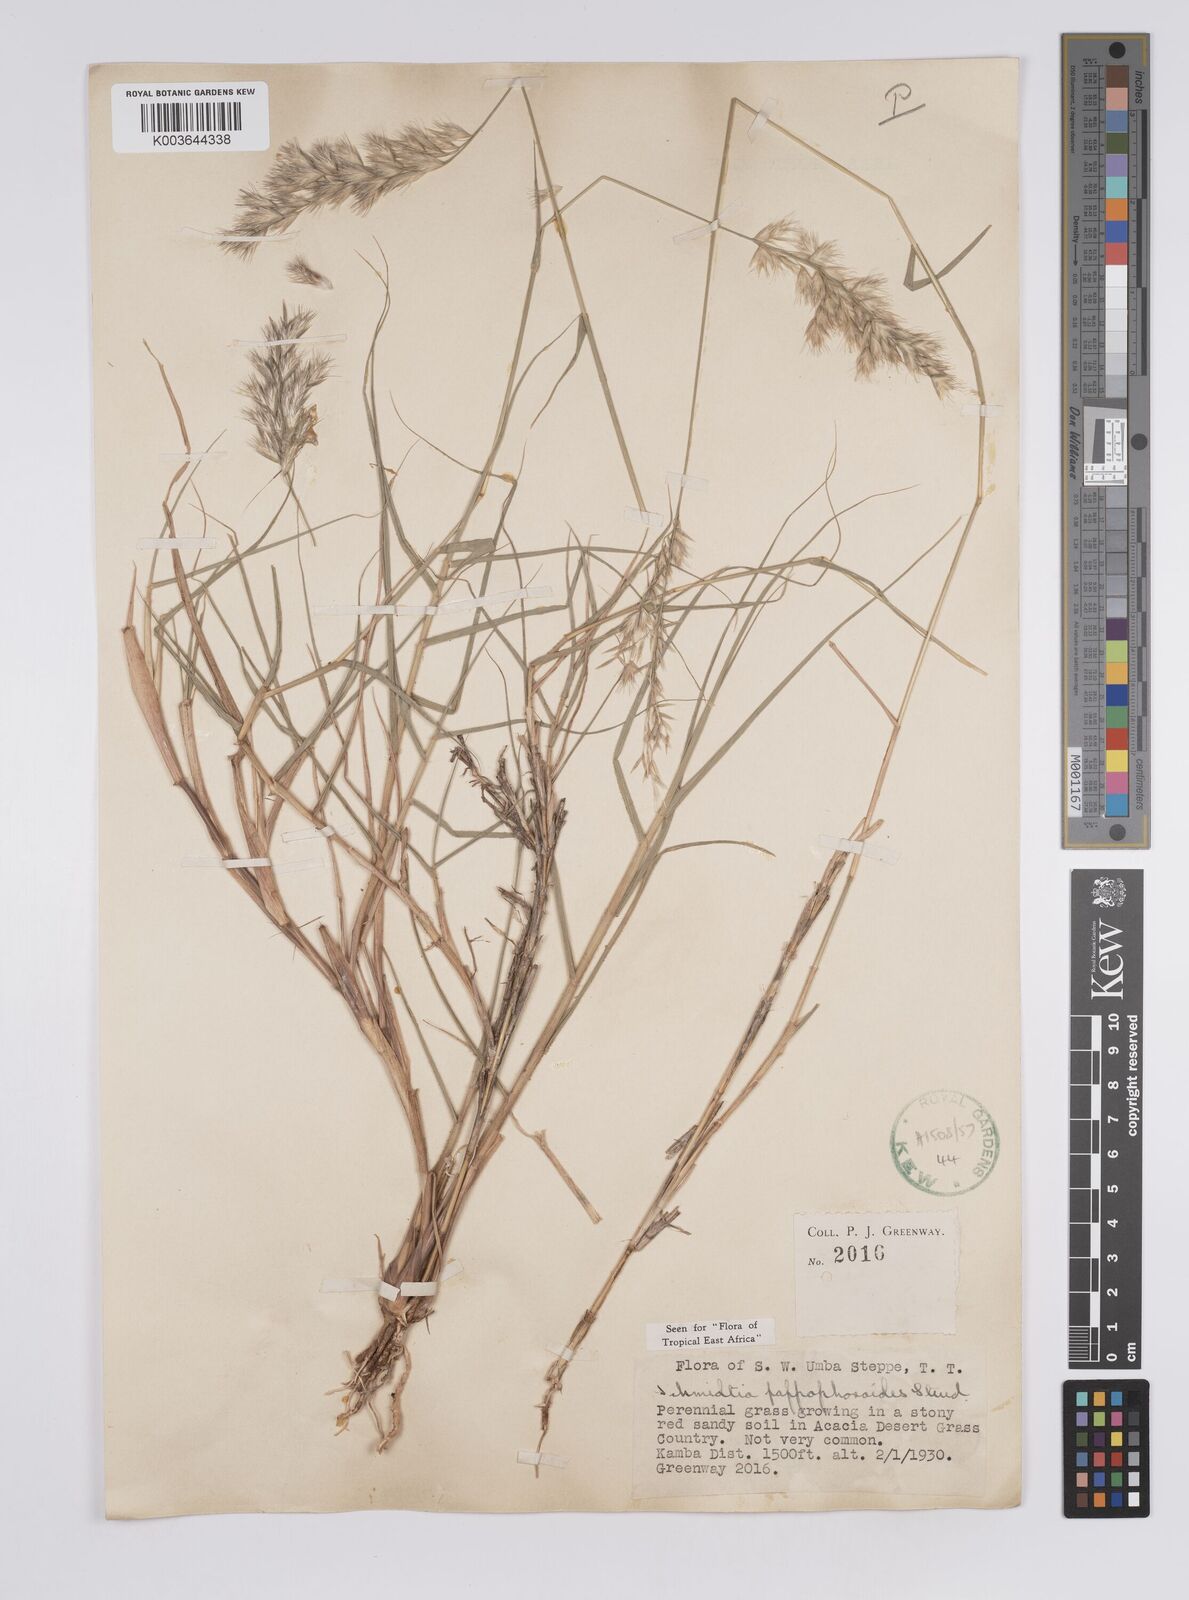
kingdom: Plantae
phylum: Tracheophyta
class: Liliopsida
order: Poales
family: Poaceae
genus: Schmidtia
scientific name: Schmidtia pappophoroides
